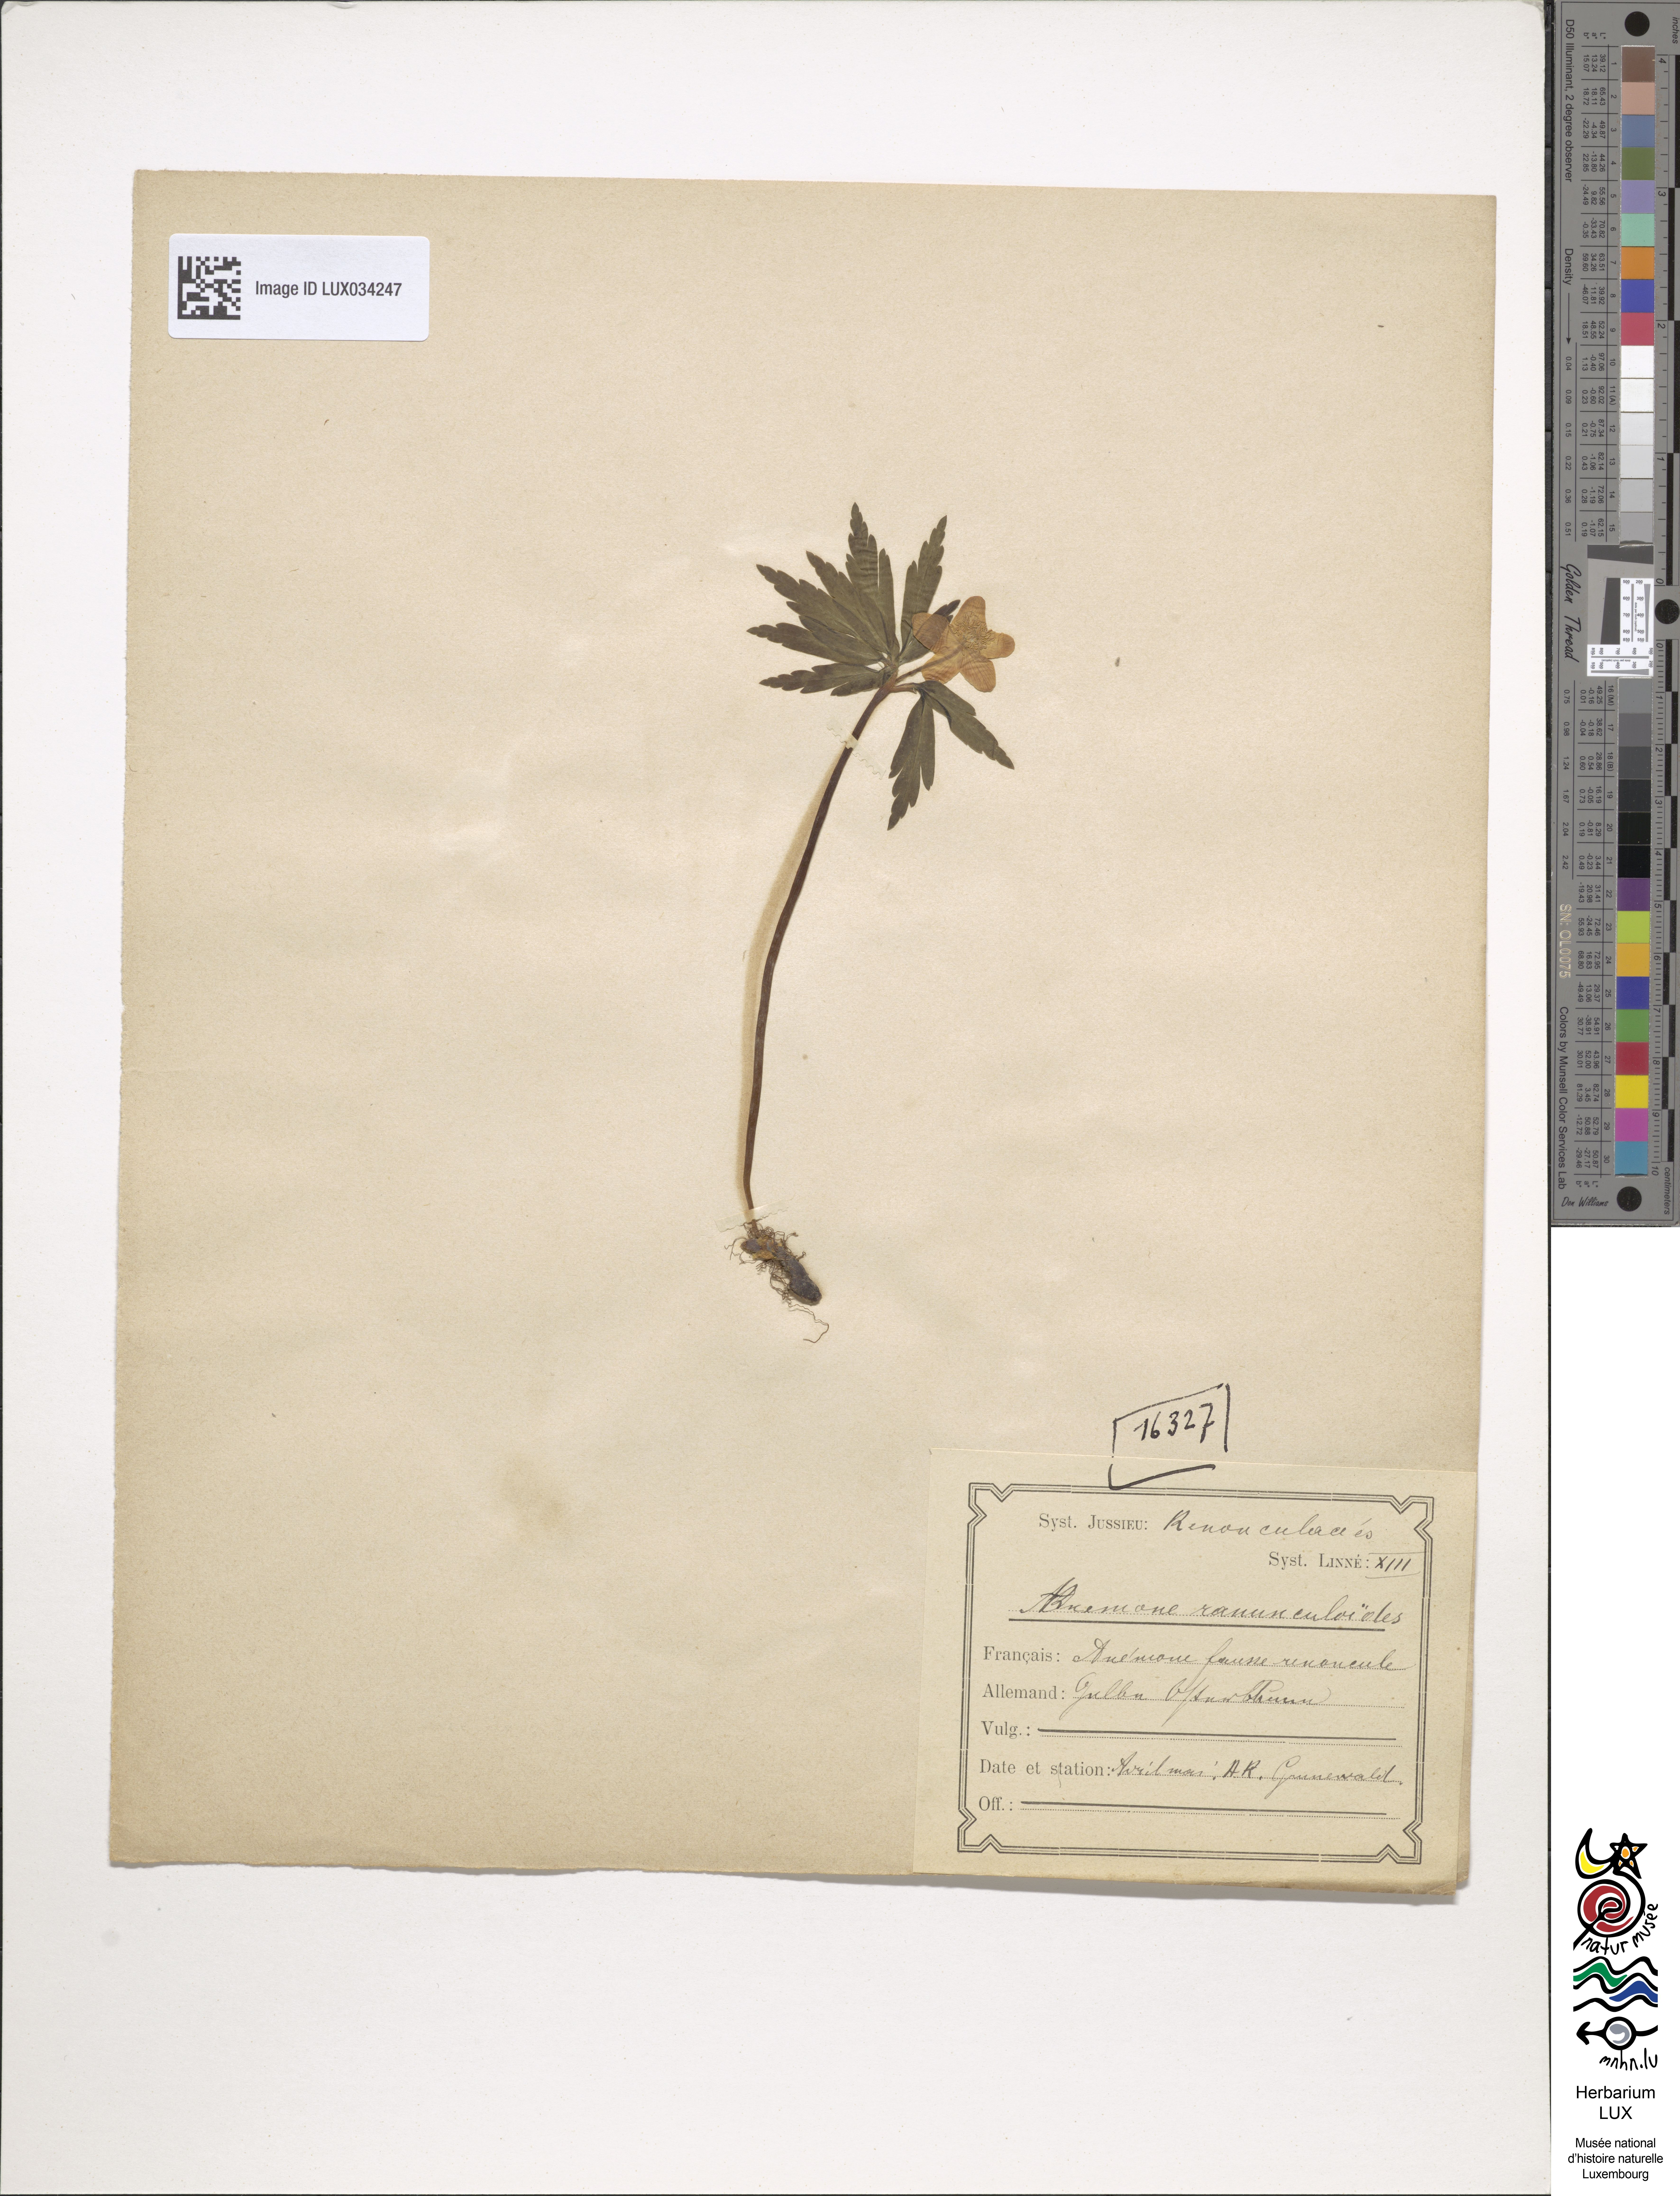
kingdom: Plantae
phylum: Tracheophyta
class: Magnoliopsida
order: Ranunculales
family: Ranunculaceae
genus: Anemone
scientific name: Anemone ranunculoides
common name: Yellow anemone
